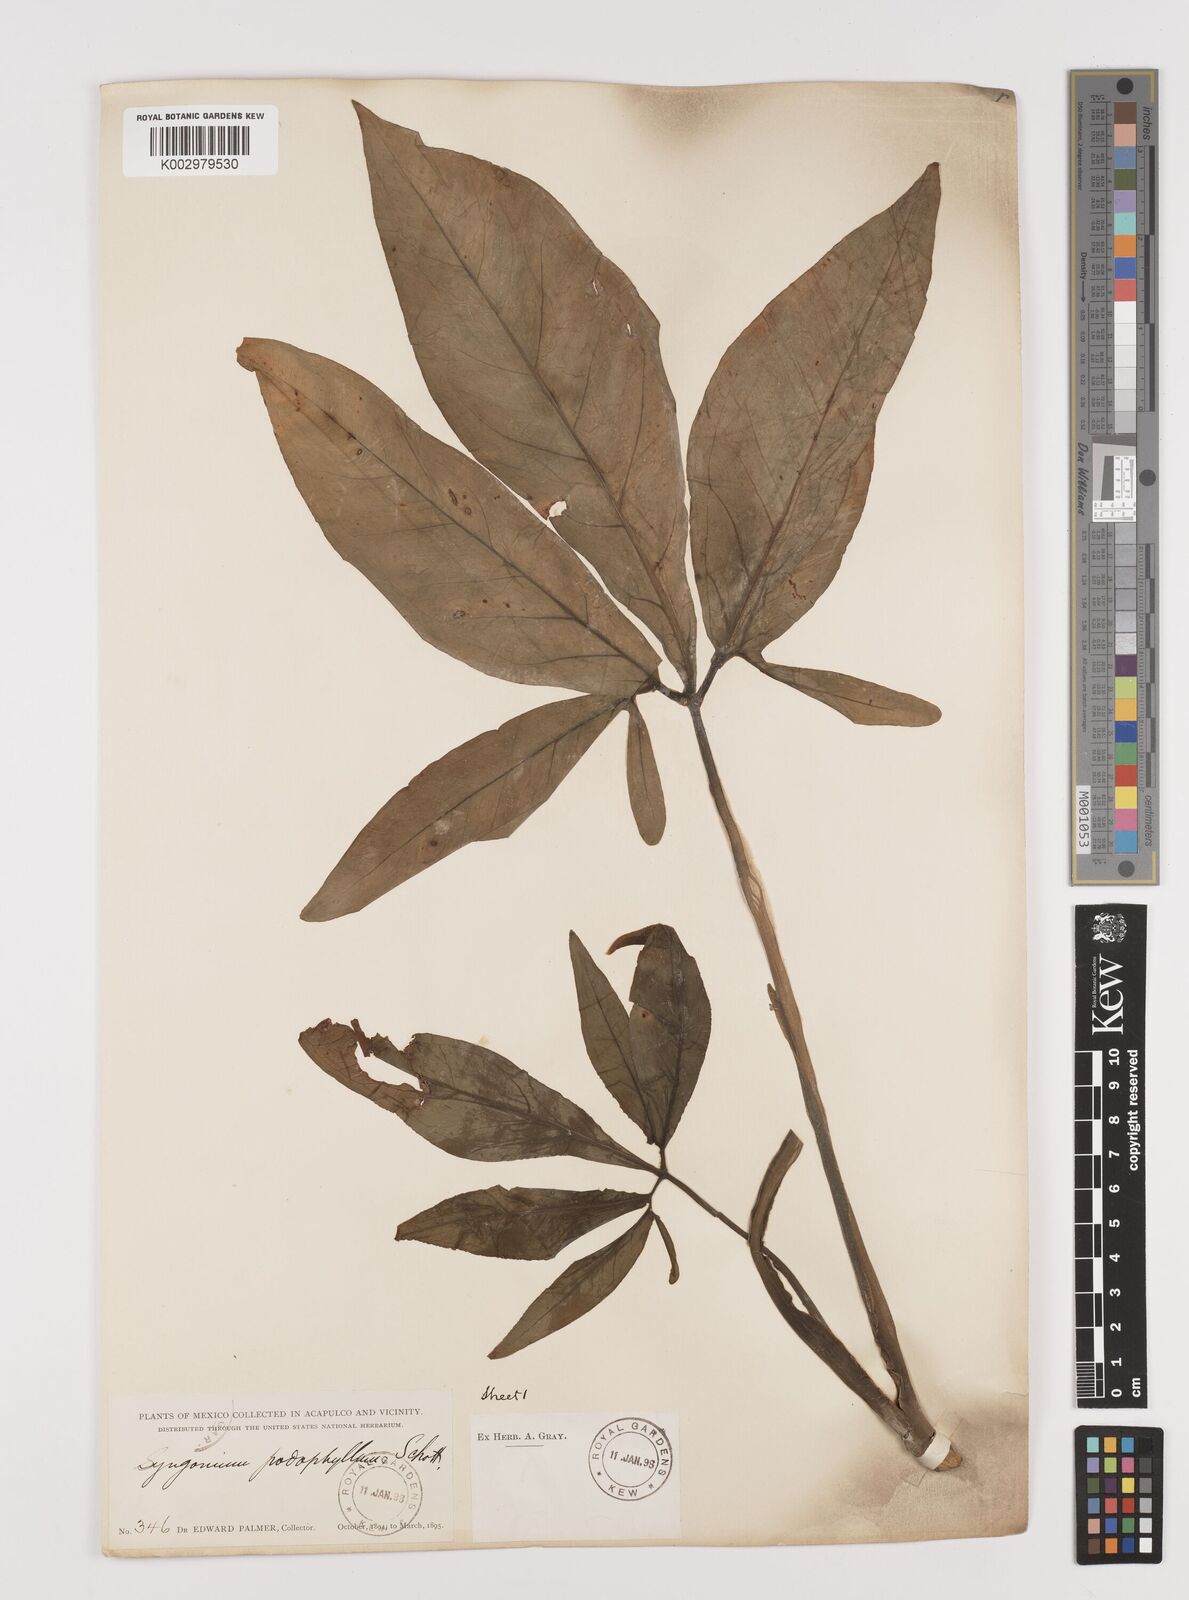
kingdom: Plantae
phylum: Tracheophyta
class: Liliopsida
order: Alismatales
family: Araceae
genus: Syngonium
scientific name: Syngonium podophyllum
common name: American evergreen
